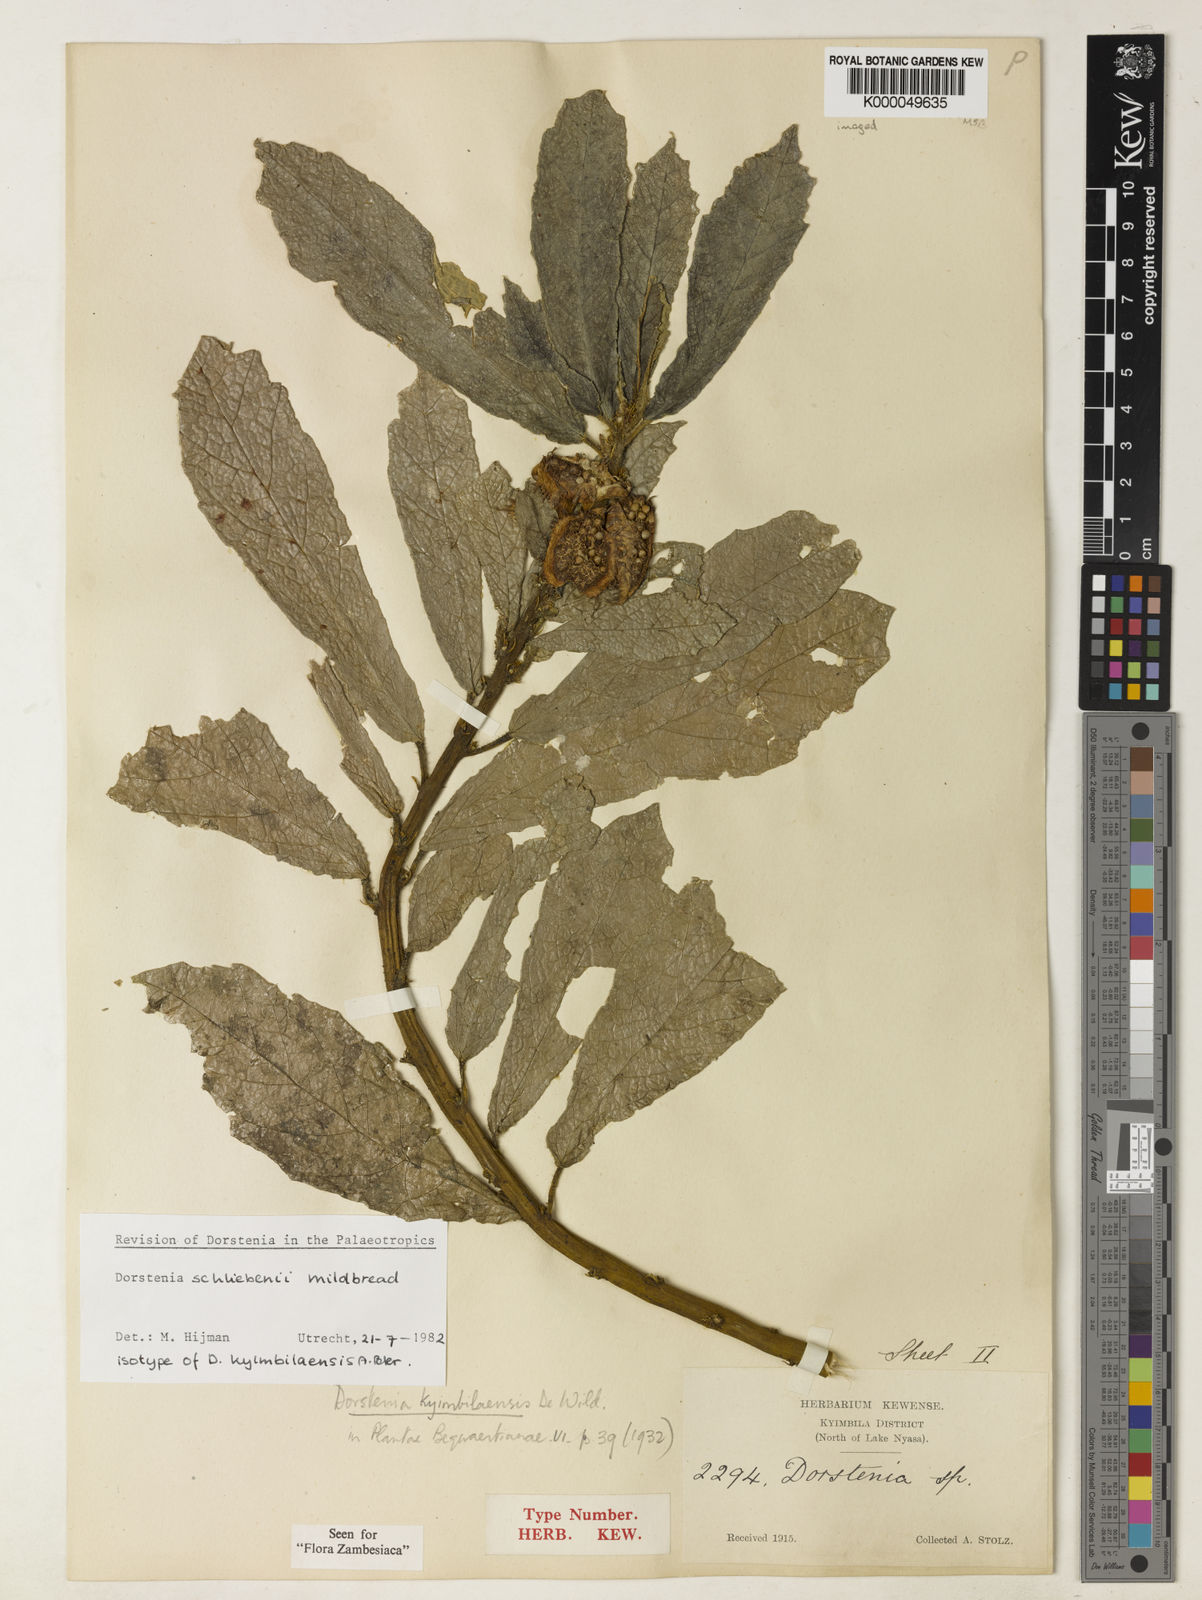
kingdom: Plantae
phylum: Tracheophyta
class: Magnoliopsida
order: Rosales
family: Moraceae
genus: Dorstenia
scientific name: Dorstenia schliebenii
